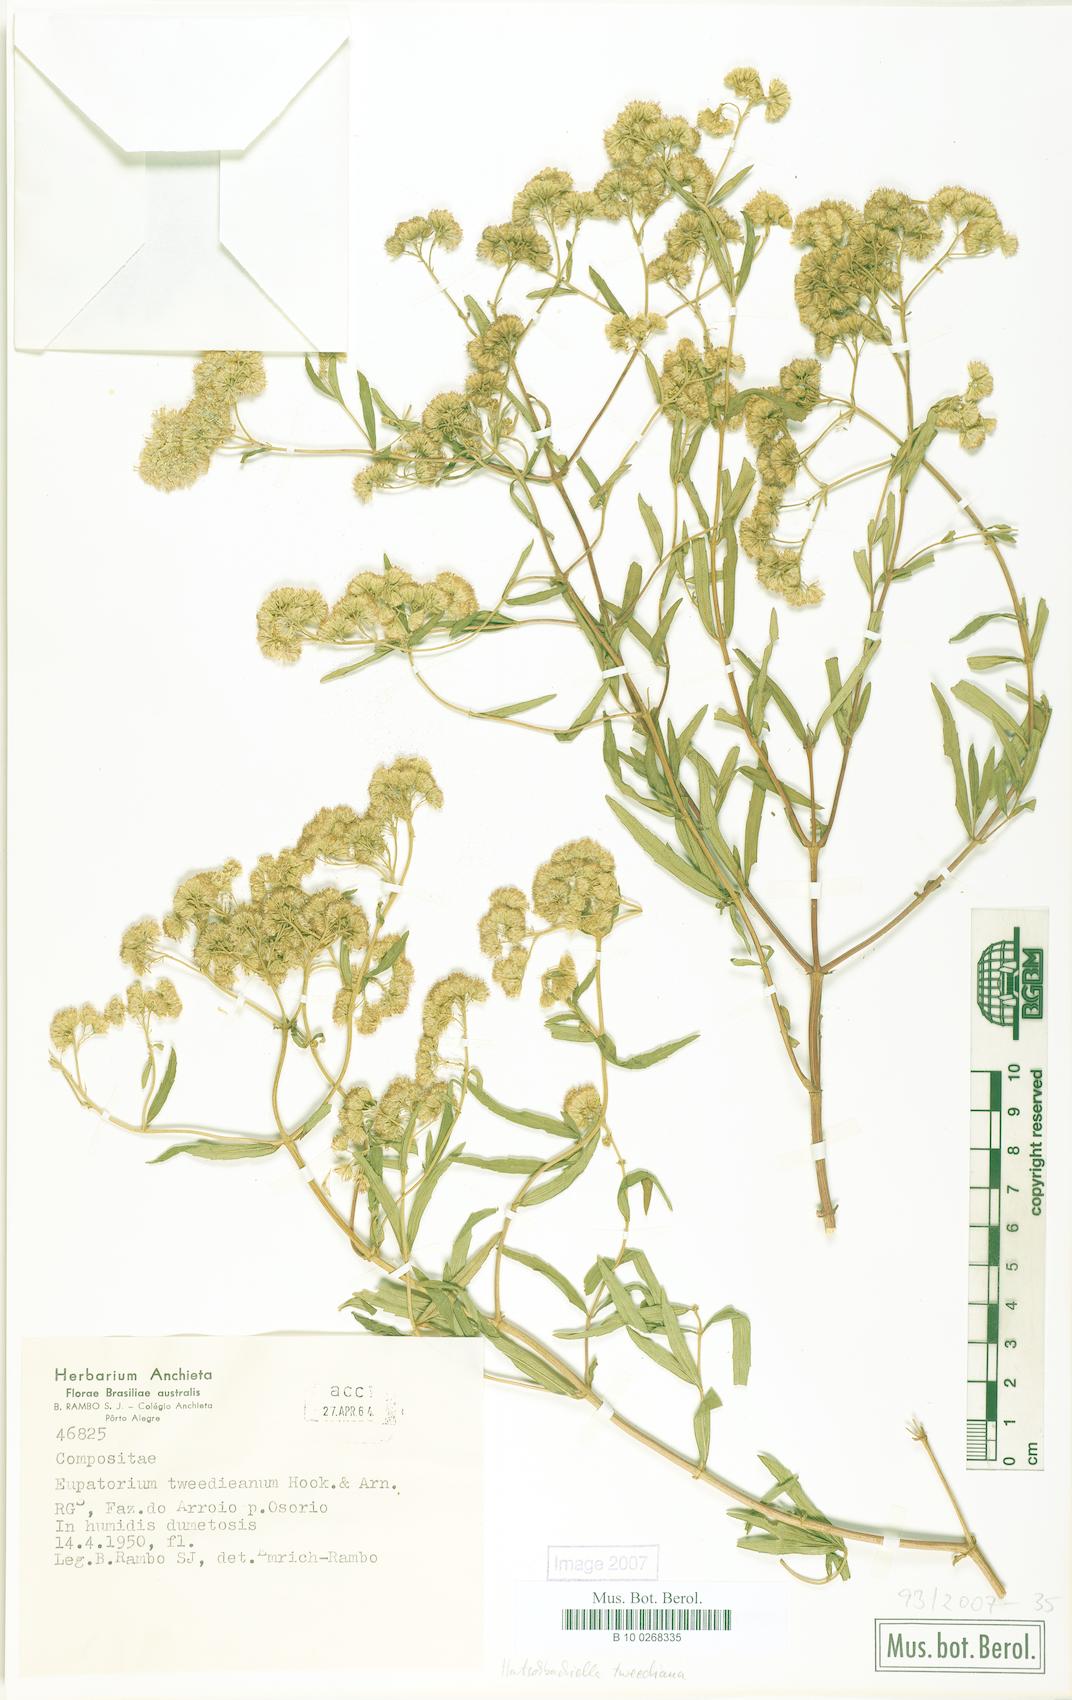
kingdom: Plantae
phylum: Tracheophyta
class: Magnoliopsida
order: Asterales
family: Asteraceae
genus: Hatschbachiella
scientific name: Hatschbachiella tweedieana
